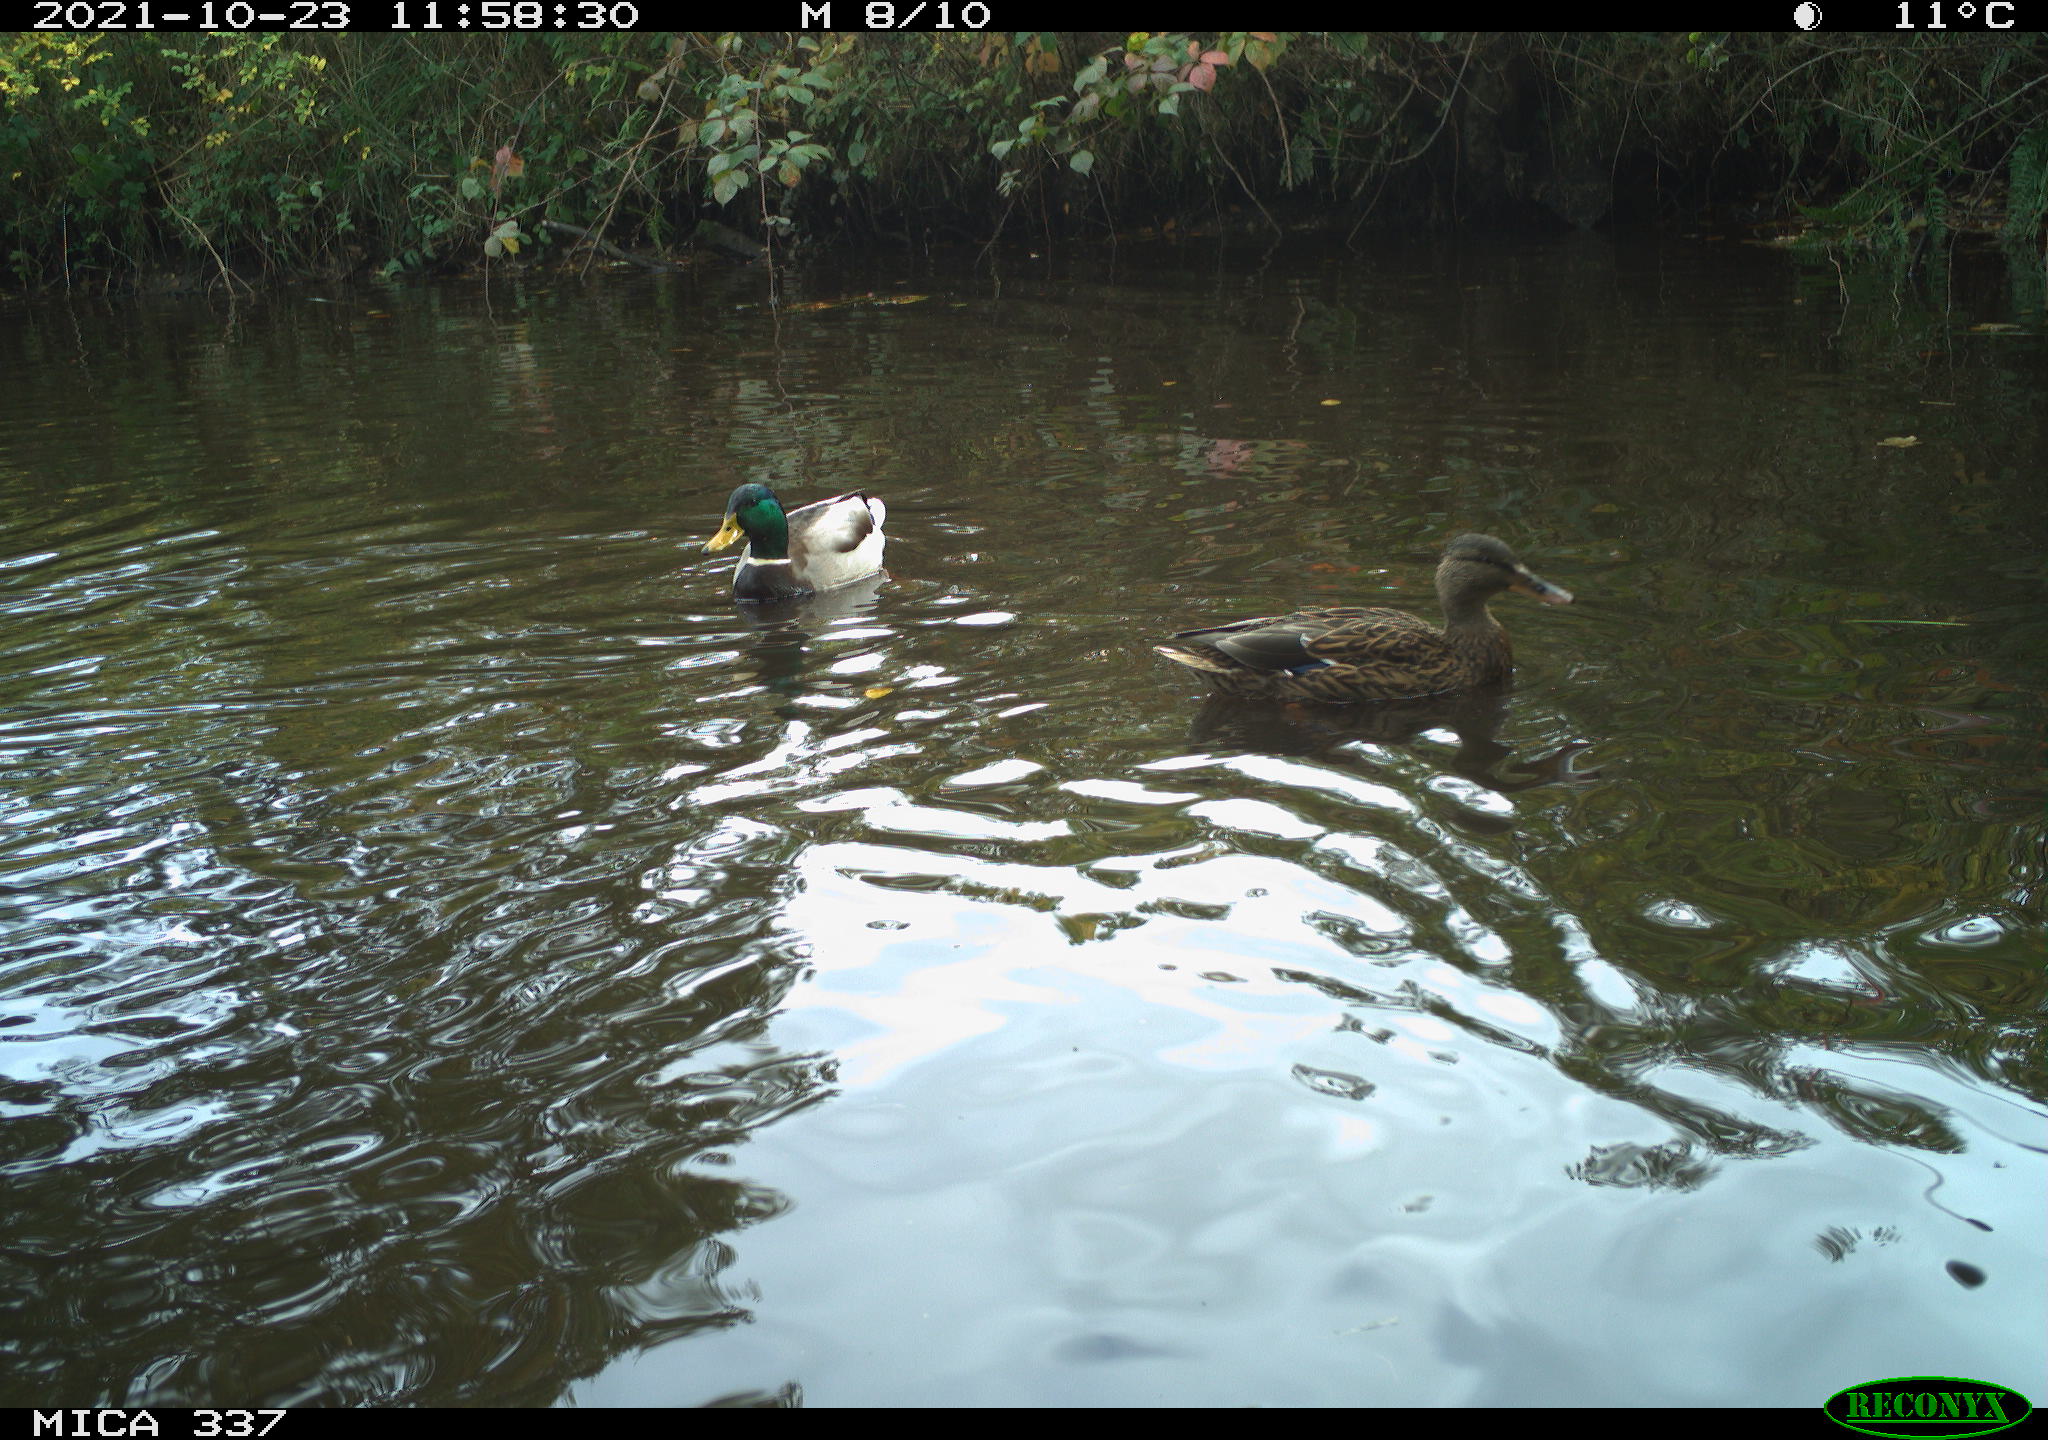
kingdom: Animalia
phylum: Chordata
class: Aves
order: Anseriformes
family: Anatidae
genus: Anas
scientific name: Anas platyrhynchos
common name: Mallard
